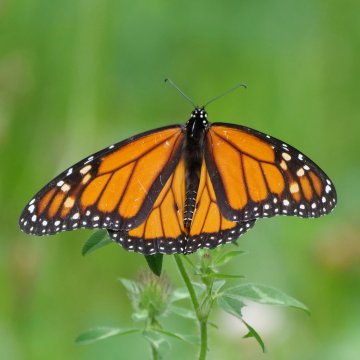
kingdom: Animalia
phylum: Arthropoda
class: Insecta
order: Lepidoptera
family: Nymphalidae
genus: Danaus
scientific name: Danaus plexippus
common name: Monarch
